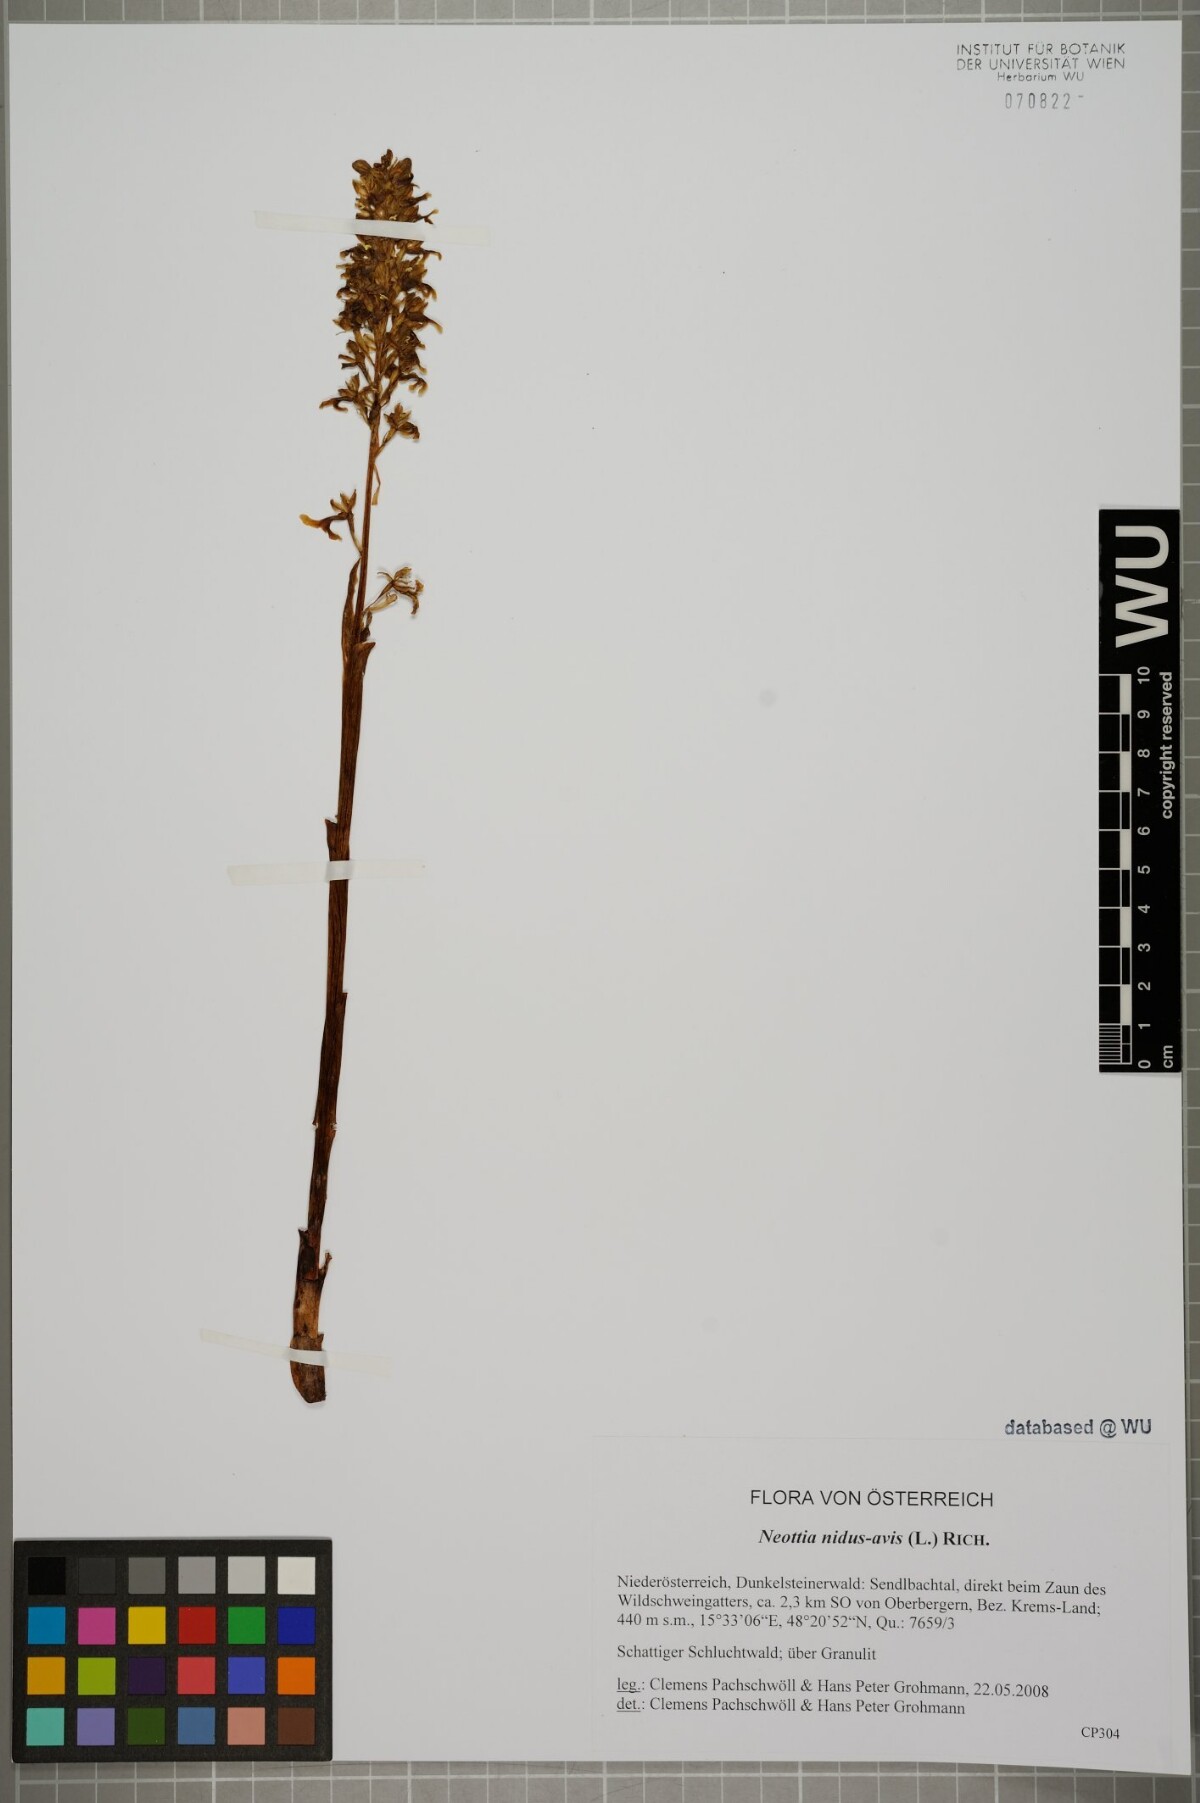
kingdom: Plantae
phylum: Tracheophyta
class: Liliopsida
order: Asparagales
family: Orchidaceae
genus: Neottia
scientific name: Neottia nidus-avis
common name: Bird's-nest orchid
